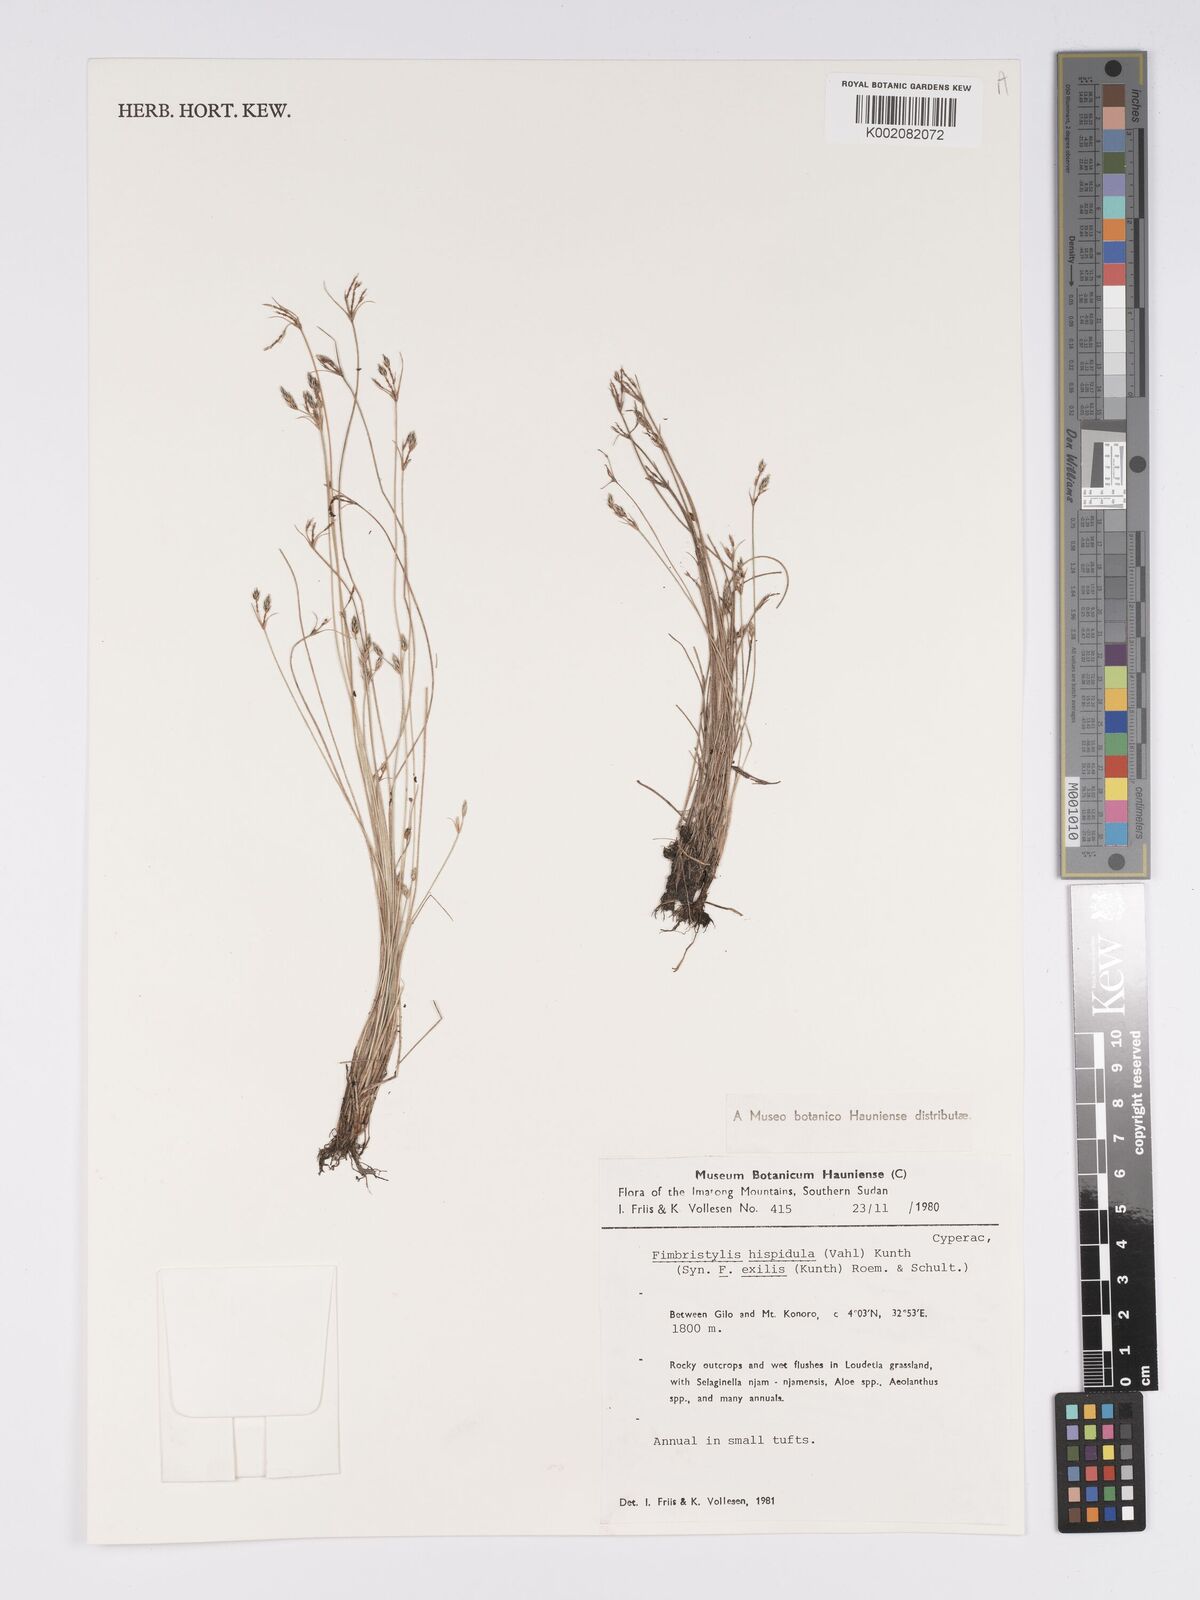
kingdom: Plantae
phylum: Tracheophyta
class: Liliopsida
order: Poales
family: Cyperaceae
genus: Bulbostylis
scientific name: Bulbostylis hispidula
